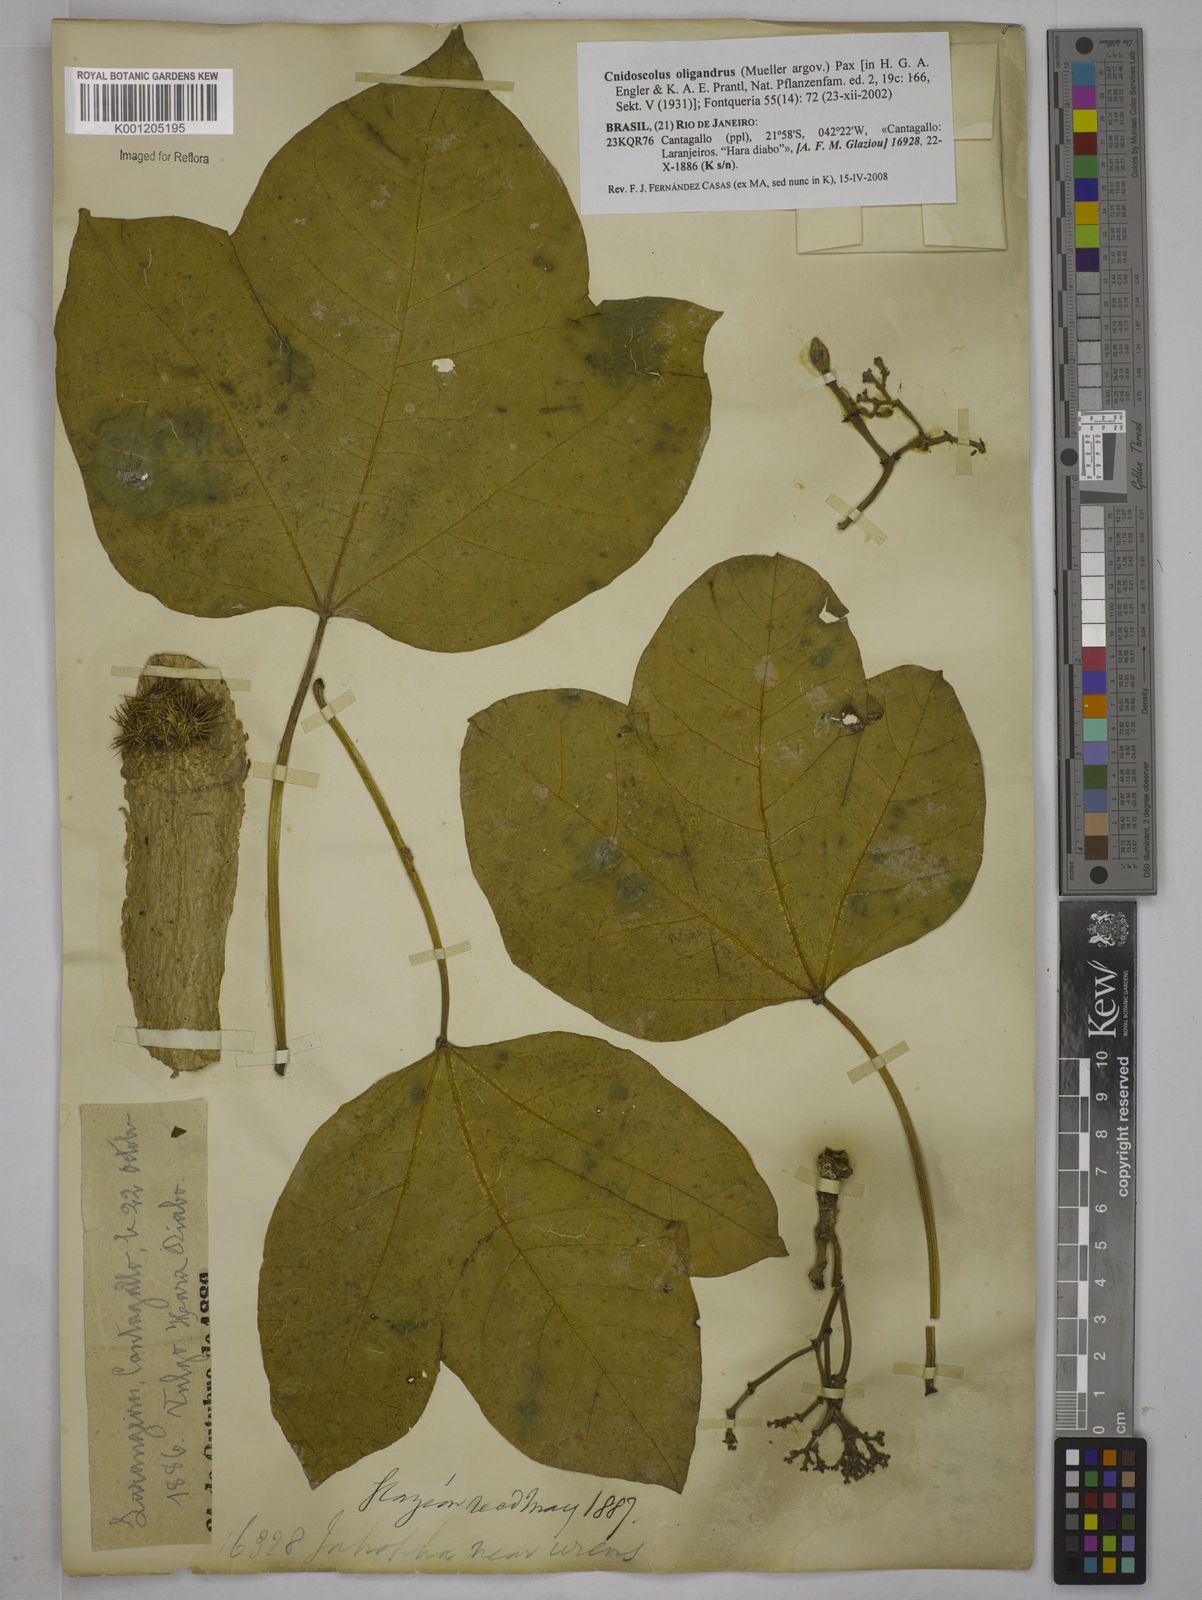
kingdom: Plantae
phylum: Tracheophyta
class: Magnoliopsida
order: Malpighiales
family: Euphorbiaceae
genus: Cnidoscolus
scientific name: Cnidoscolus
